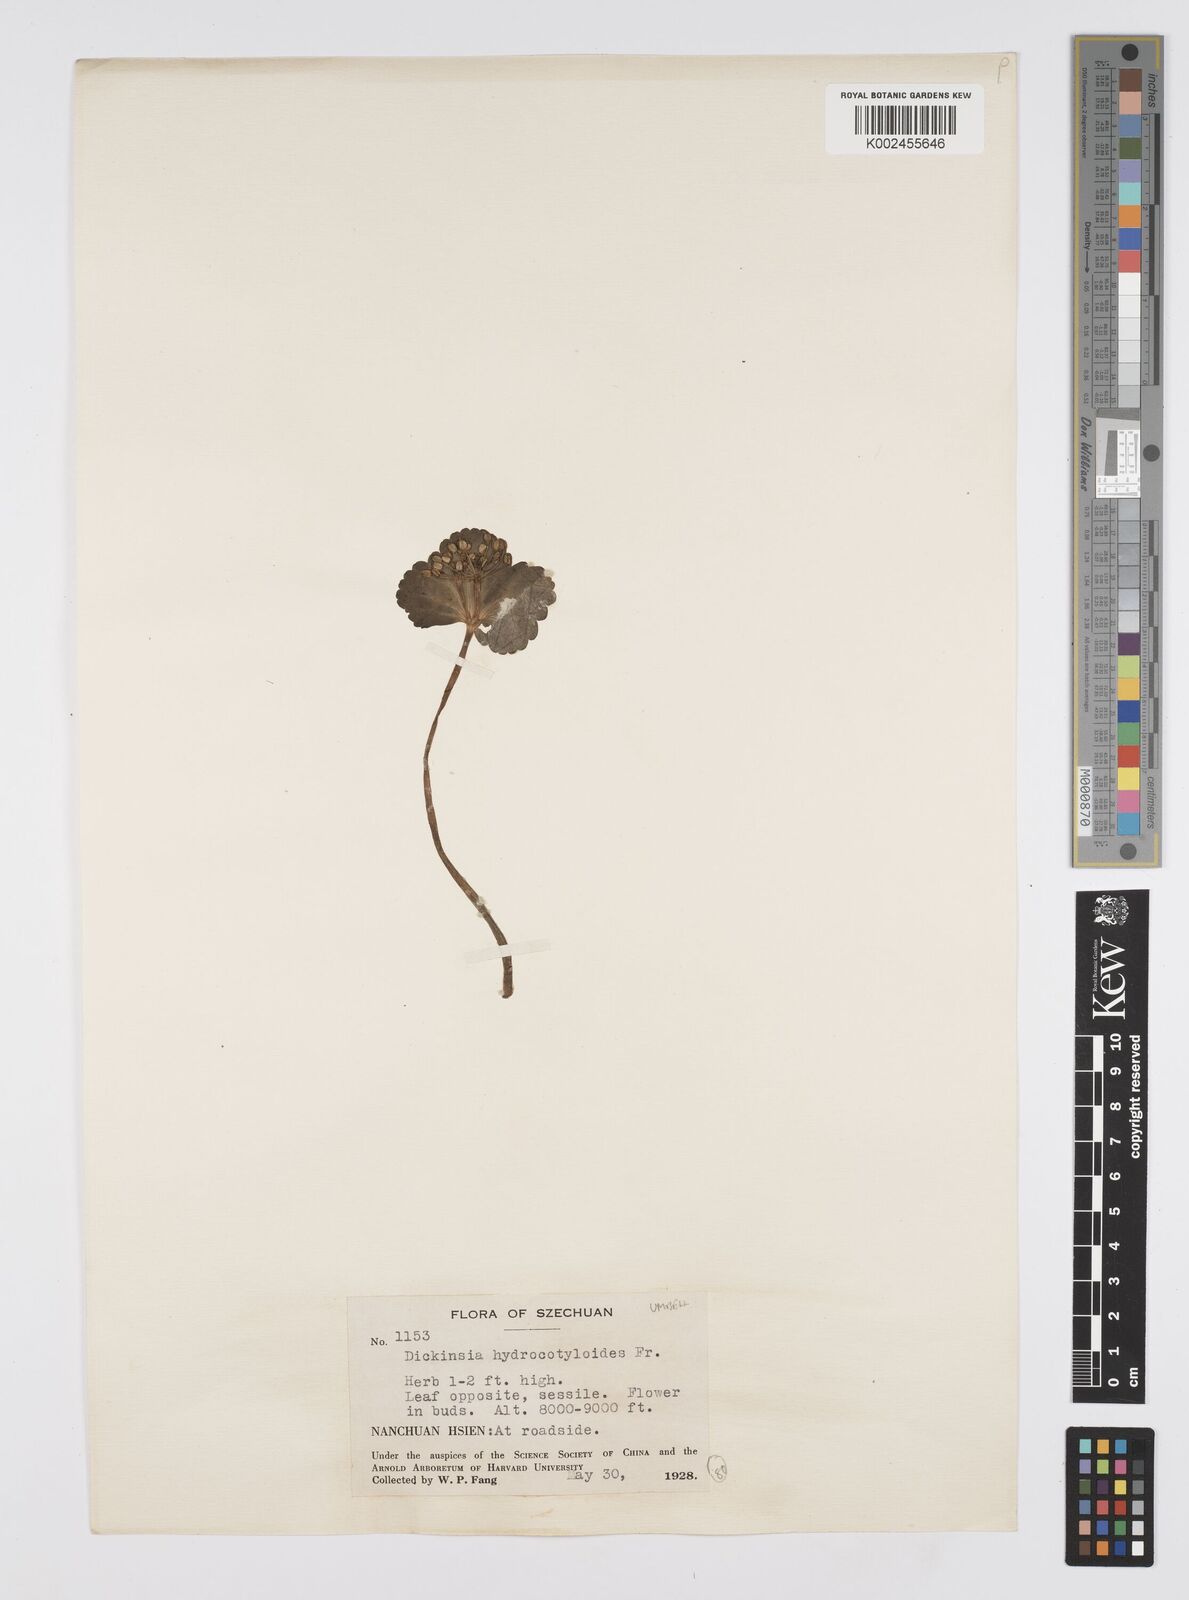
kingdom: Plantae
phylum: Tracheophyta
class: Magnoliopsida
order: Apiales
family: Apiaceae
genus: Dickinsia
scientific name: Dickinsia hydrocotyloides
